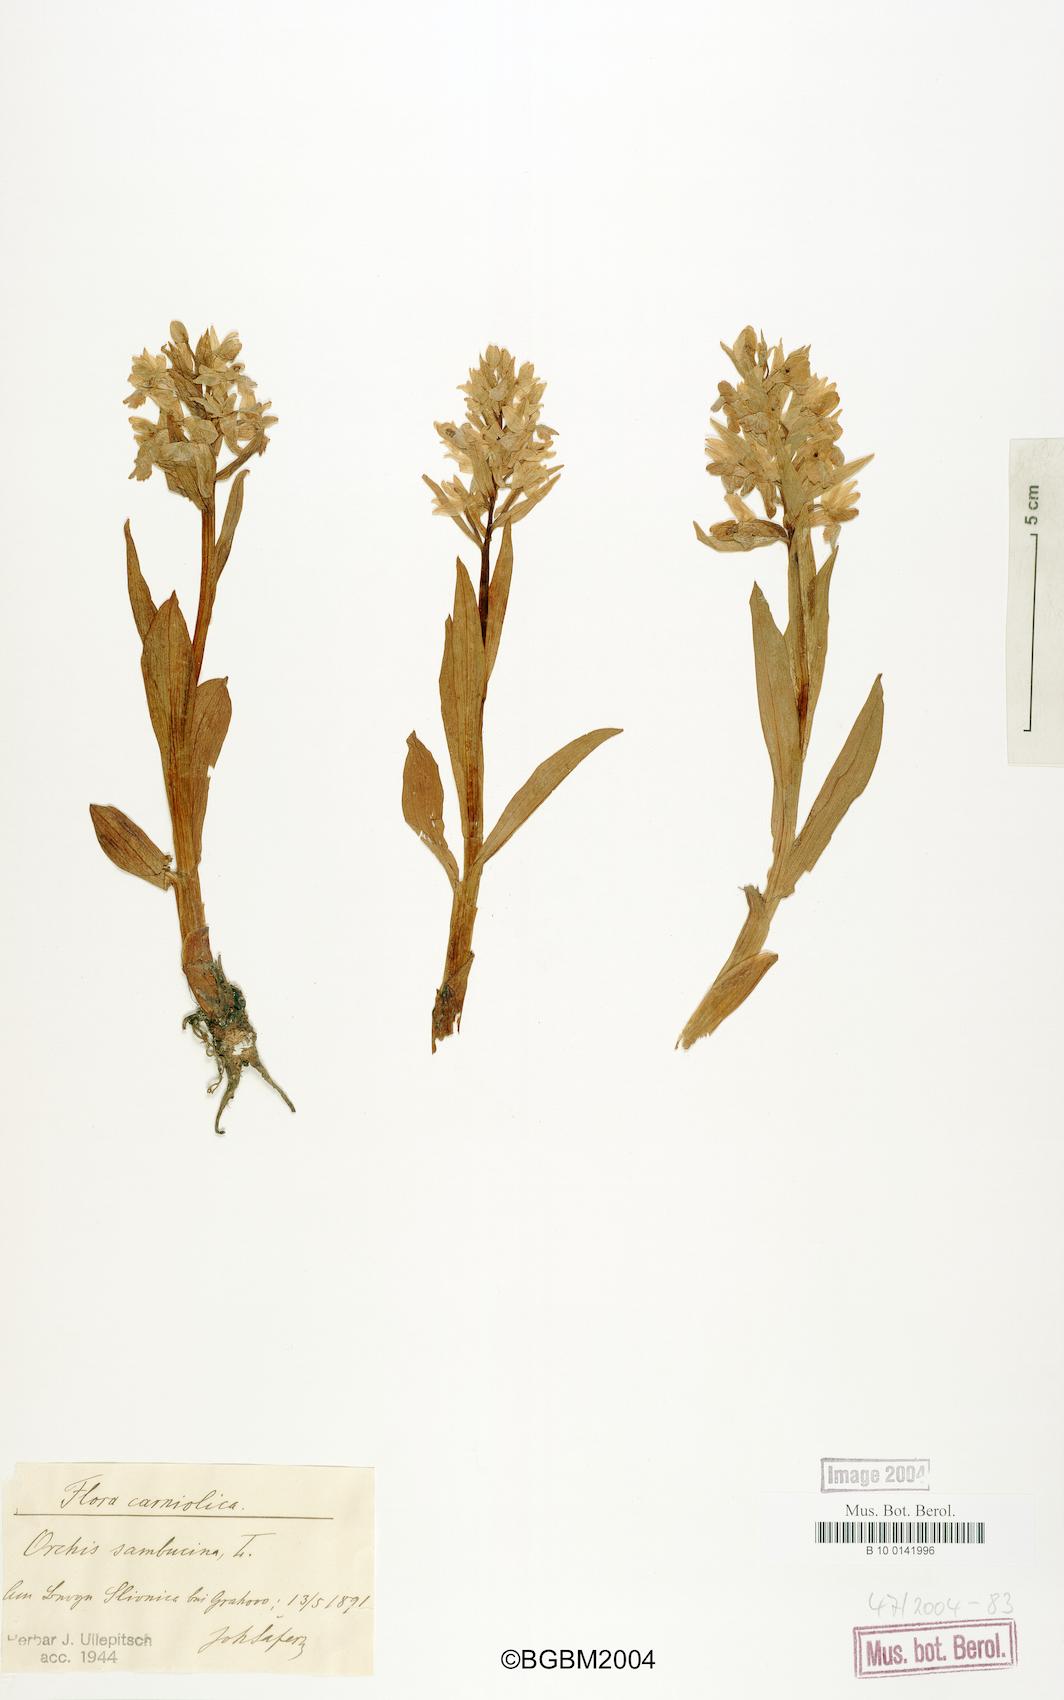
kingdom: Plantae
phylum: Tracheophyta
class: Liliopsida
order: Asparagales
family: Orchidaceae
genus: Dactylorhiza
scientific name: Dactylorhiza sambucina
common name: Elder-flowered orchid
